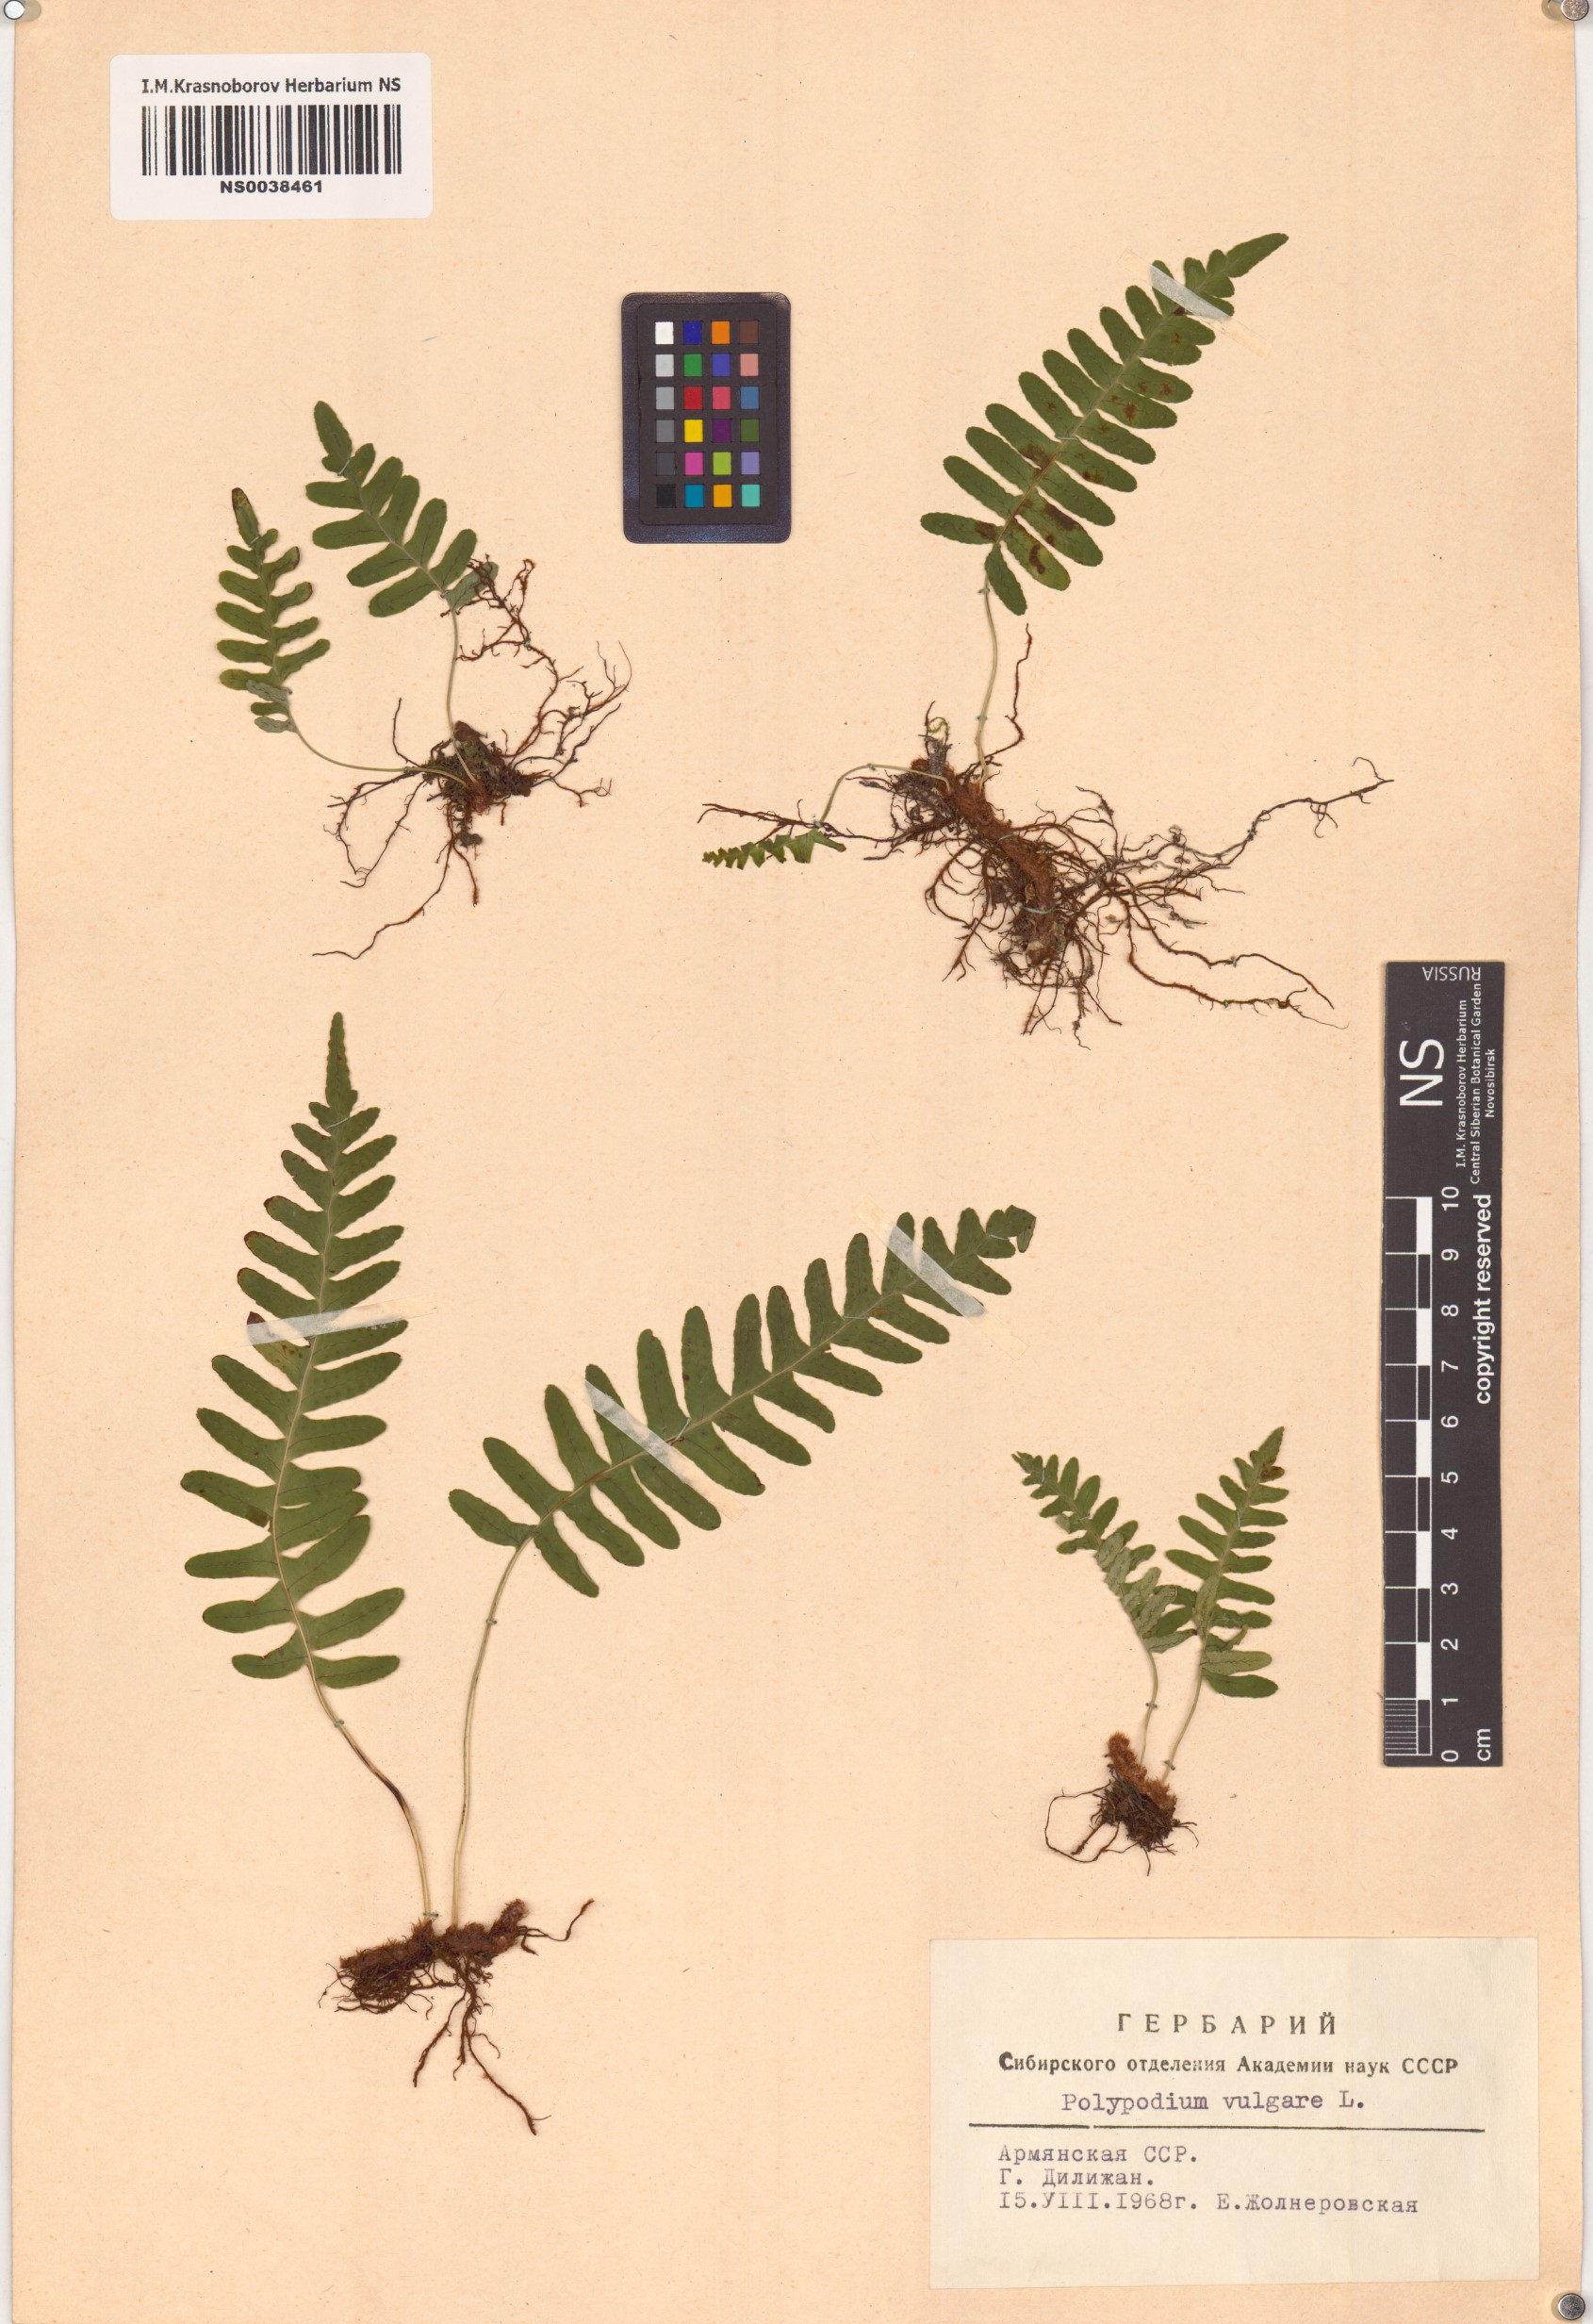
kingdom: Plantae
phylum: Tracheophyta
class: Polypodiopsida
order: Polypodiales
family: Polypodiaceae
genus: Polypodium
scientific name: Polypodium vulgare
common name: Common polypody
